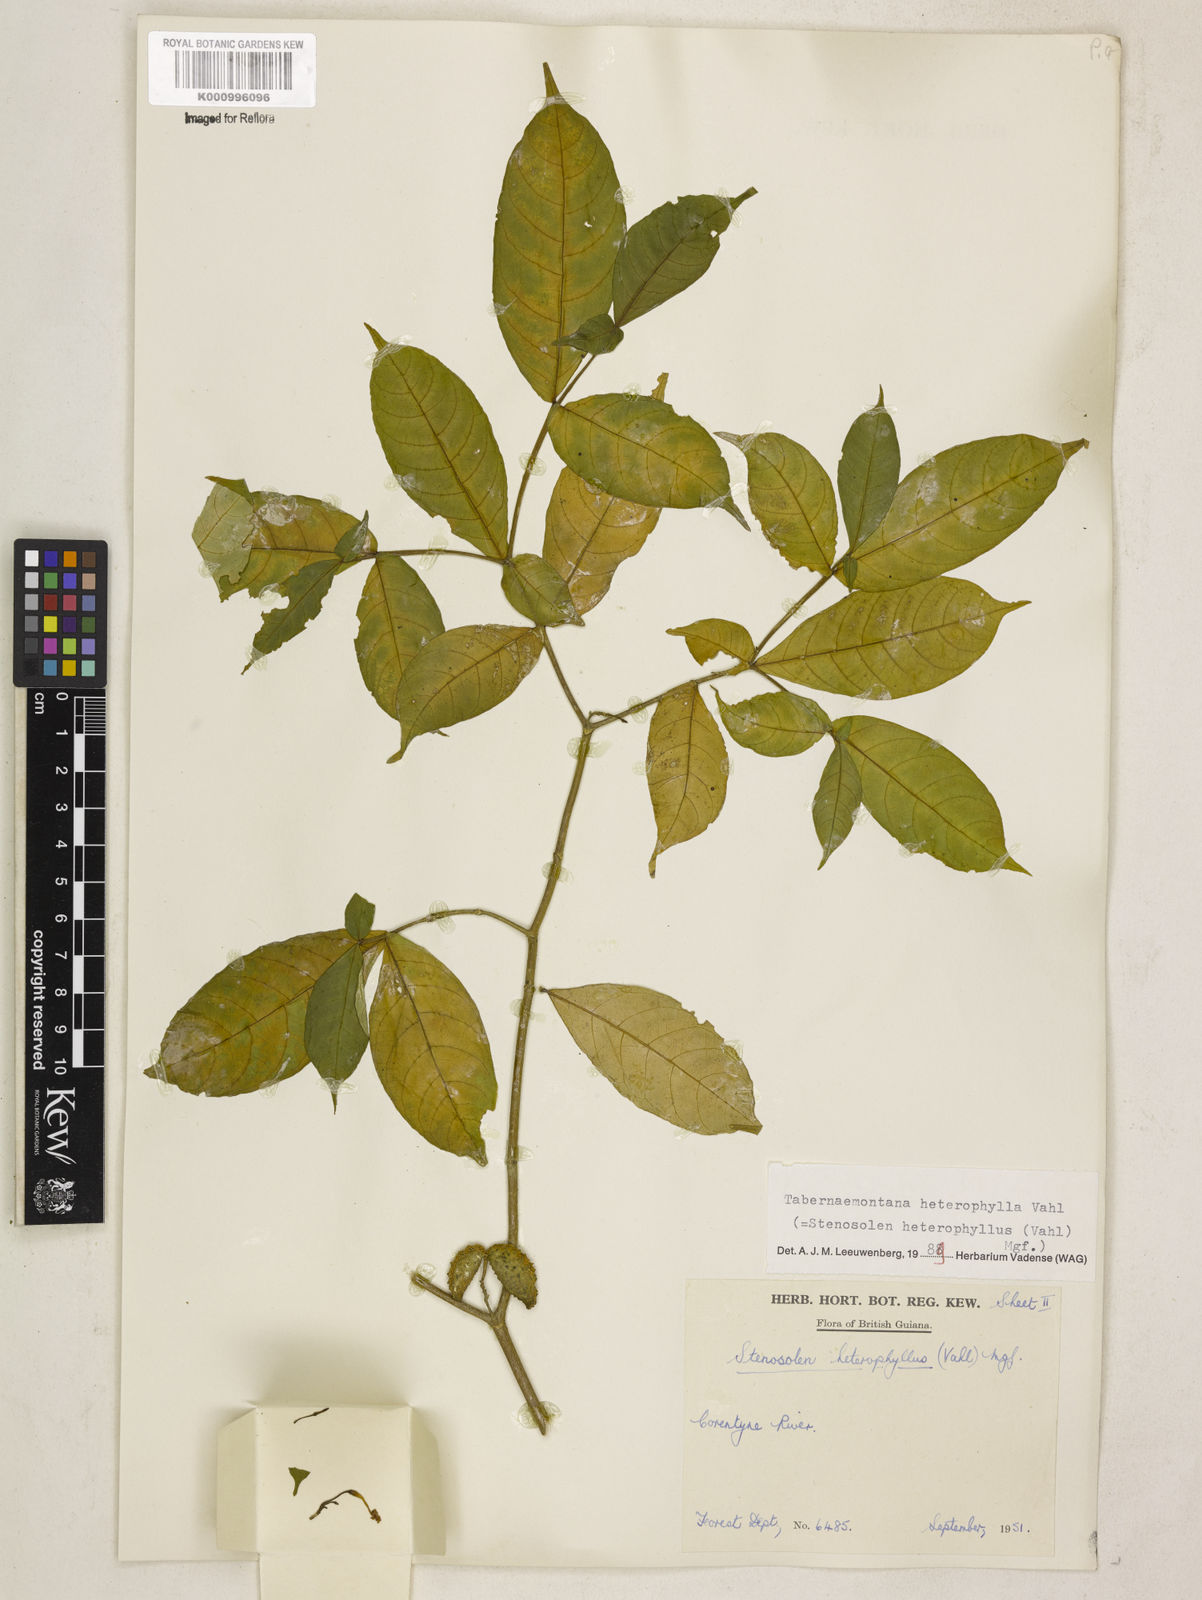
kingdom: Plantae
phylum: Tracheophyta
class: Magnoliopsida
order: Gentianales
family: Apocynaceae
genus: Tabernaemontana
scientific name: Tabernaemontana heterophylla
